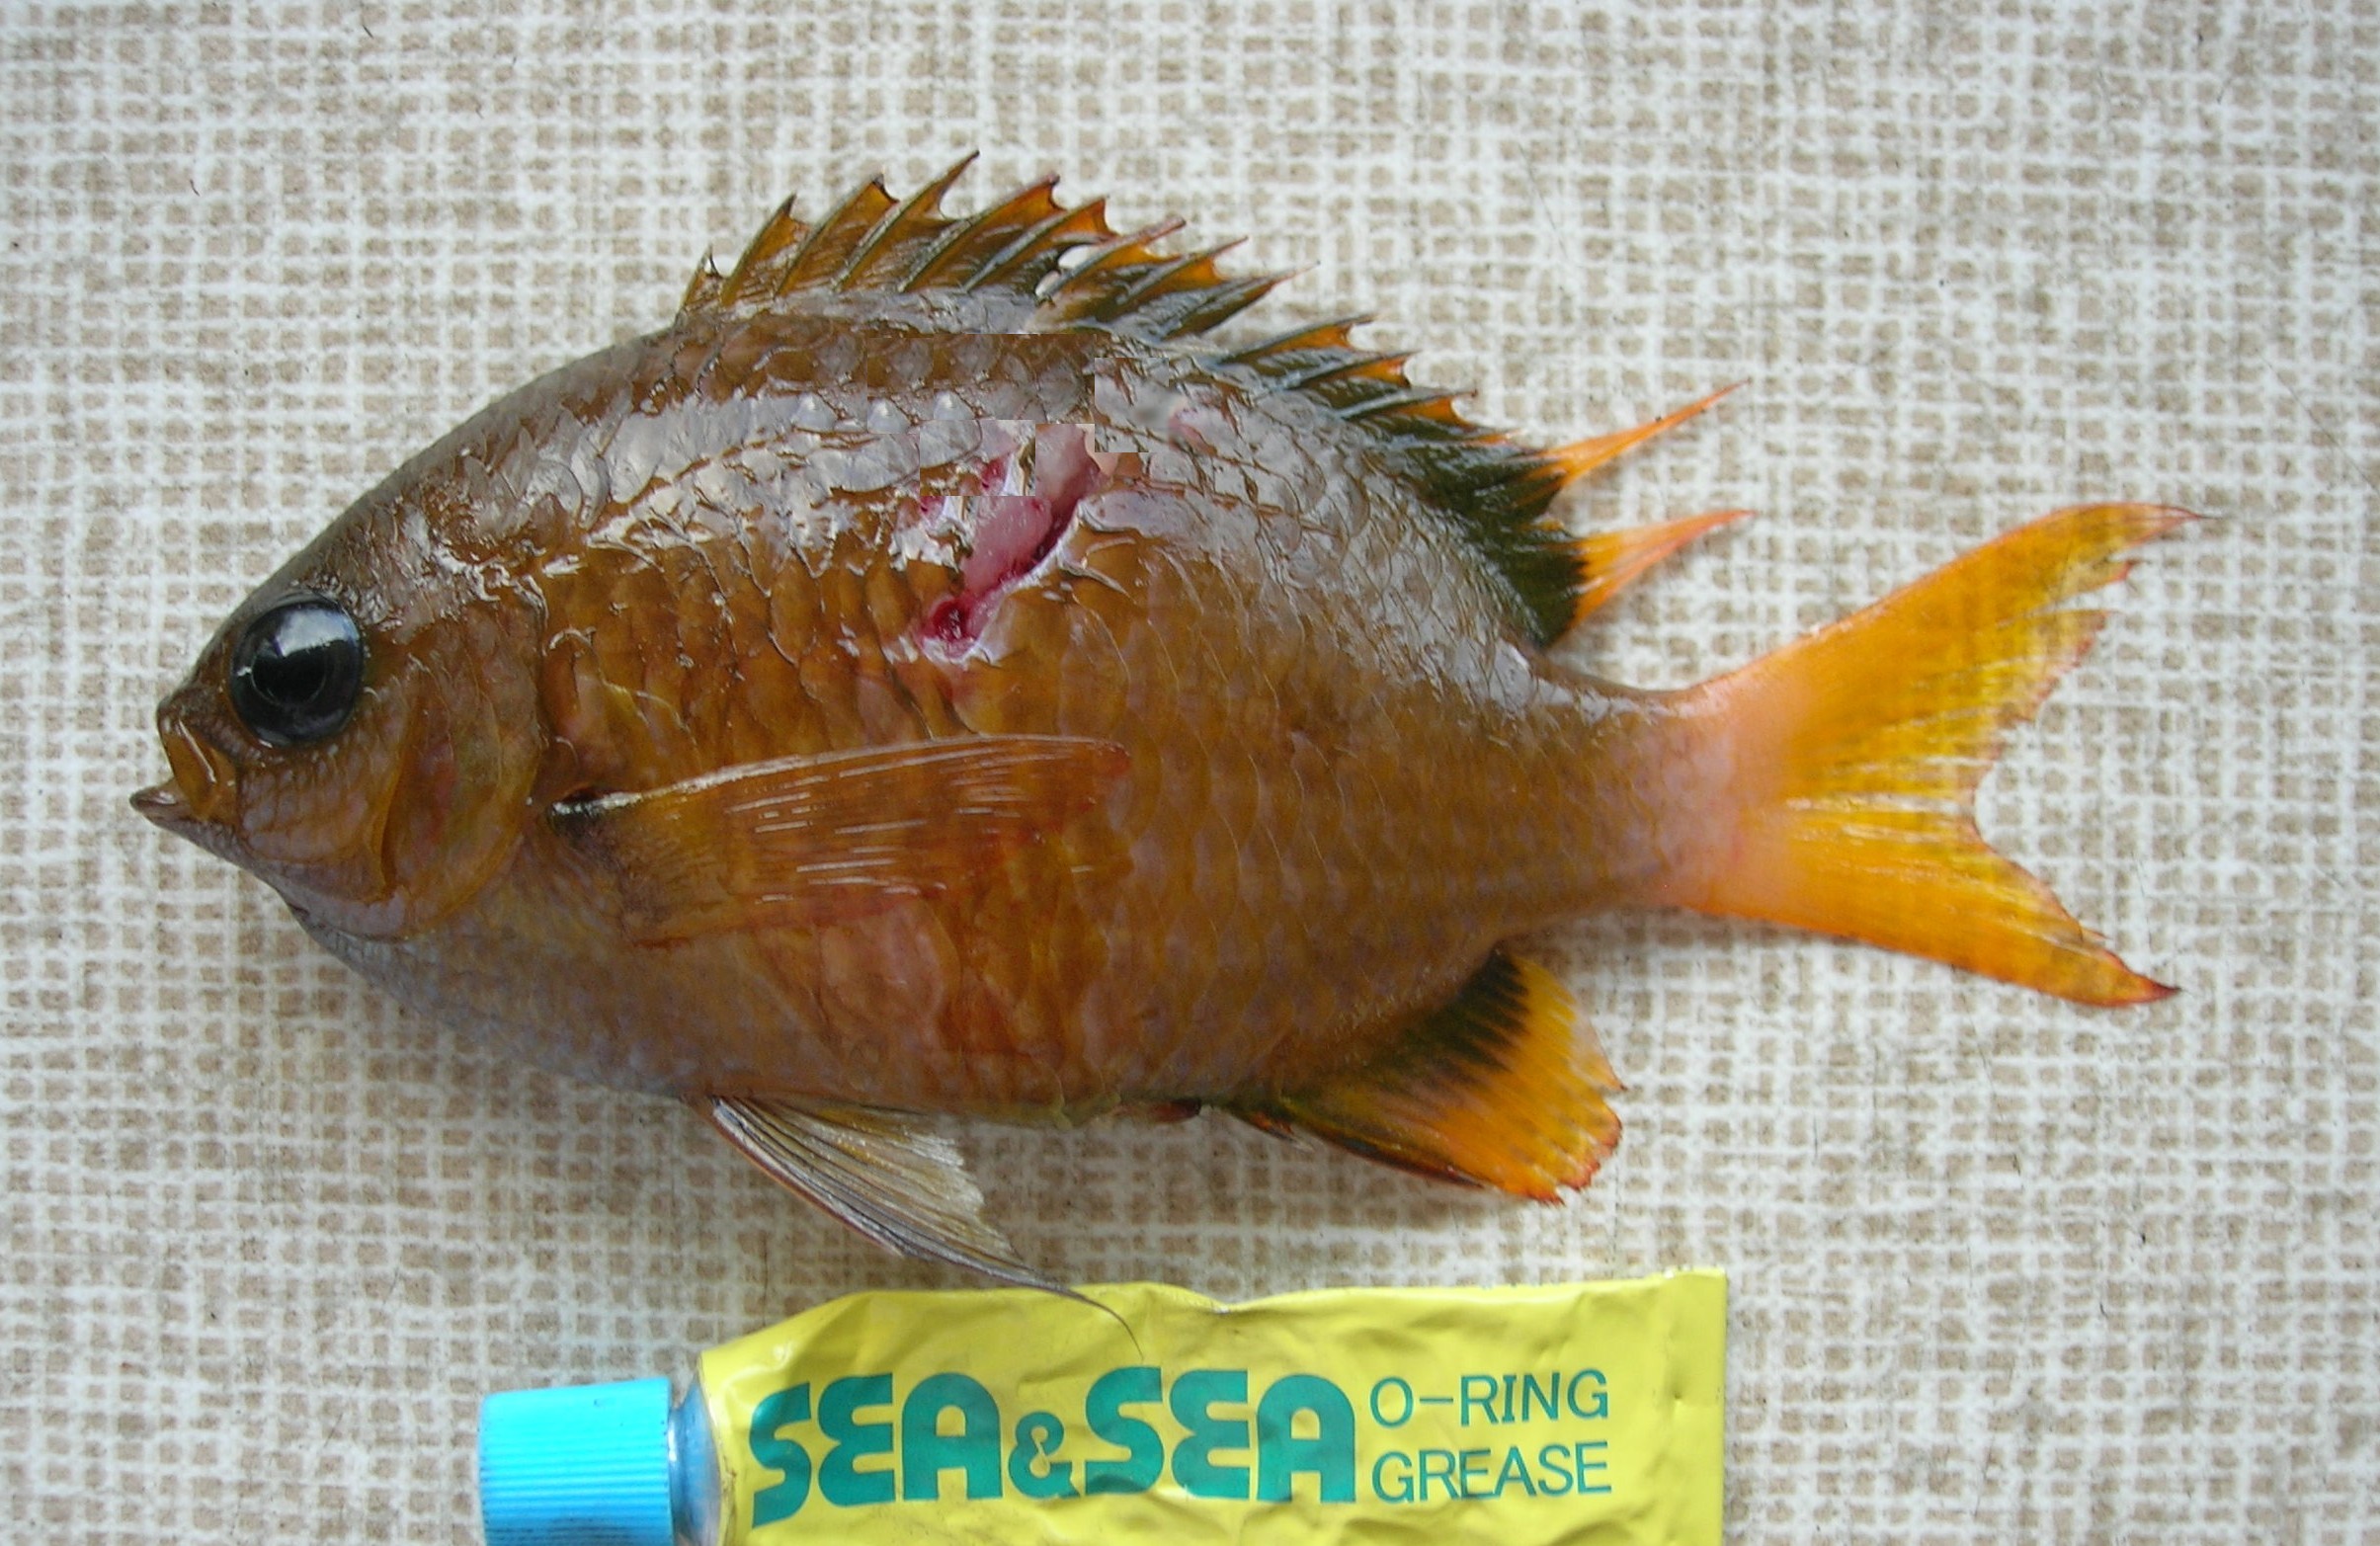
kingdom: Animalia
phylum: Chordata
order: Perciformes
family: Pomacentridae
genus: Chromis
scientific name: Chromis pembae
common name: Pemba chromis
